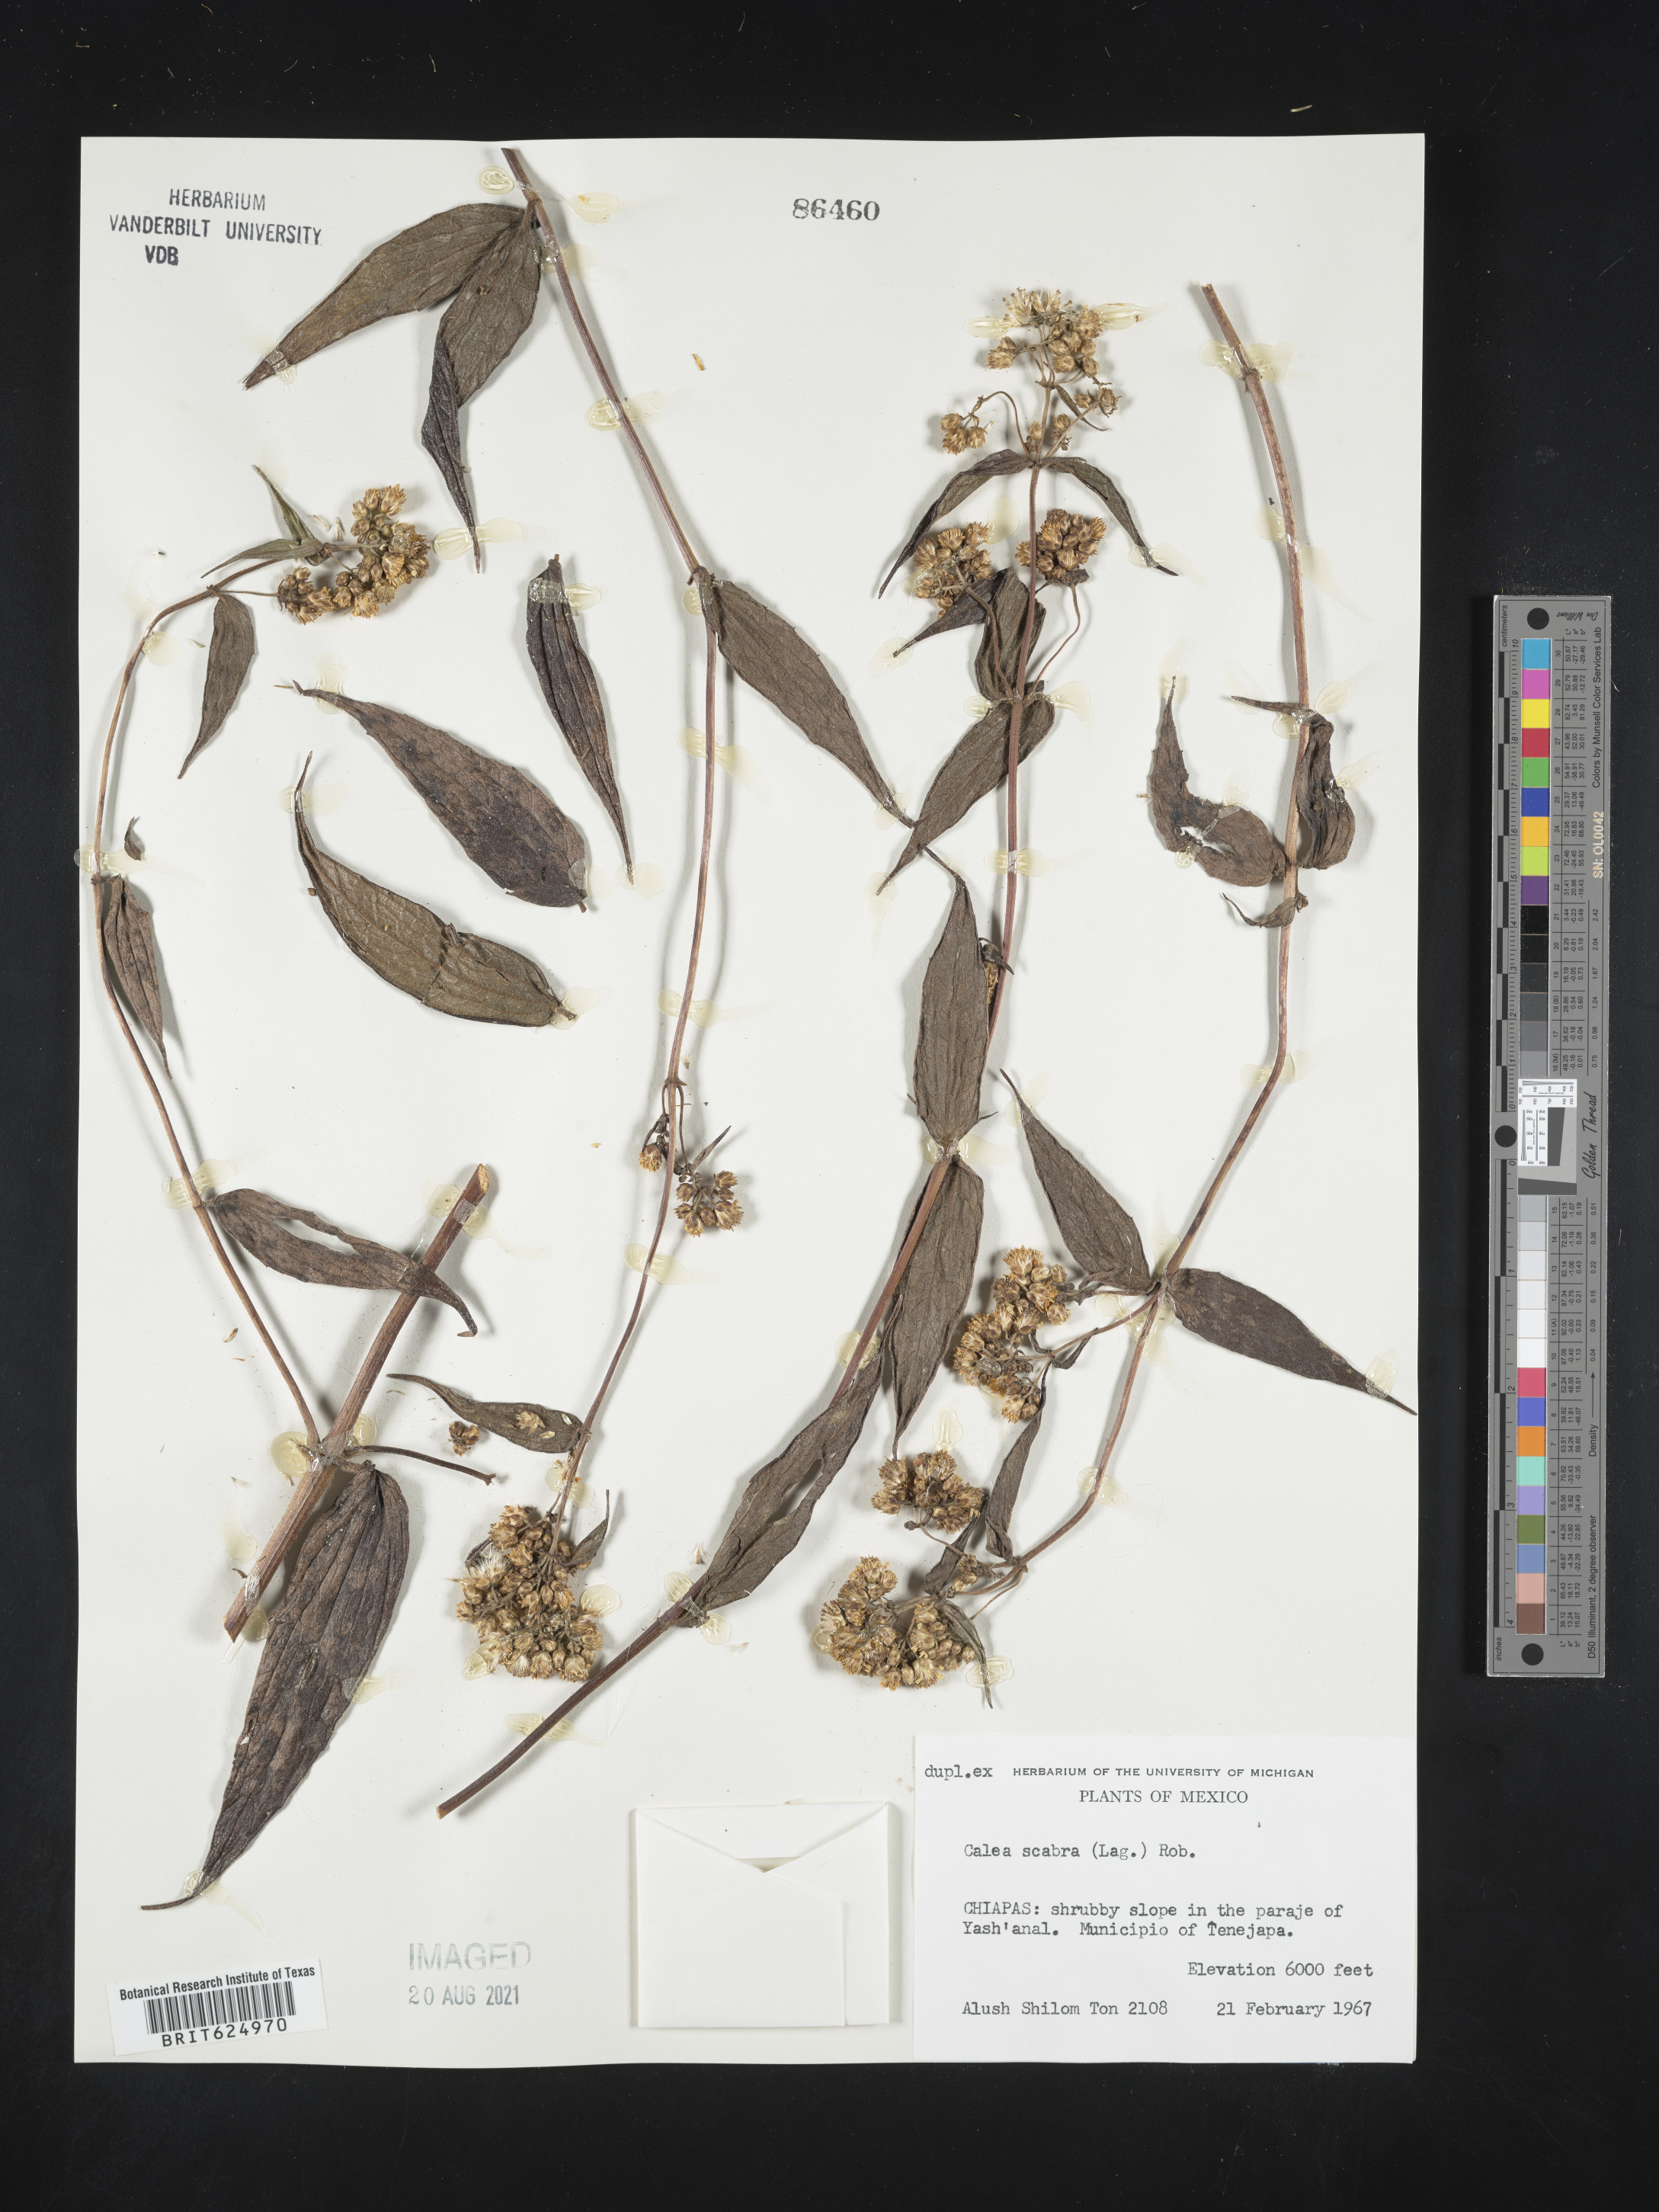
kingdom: Plantae
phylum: Tracheophyta
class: Magnoliopsida
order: Asterales
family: Asteraceae
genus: Alloispermum
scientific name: Alloispermum scabrum
